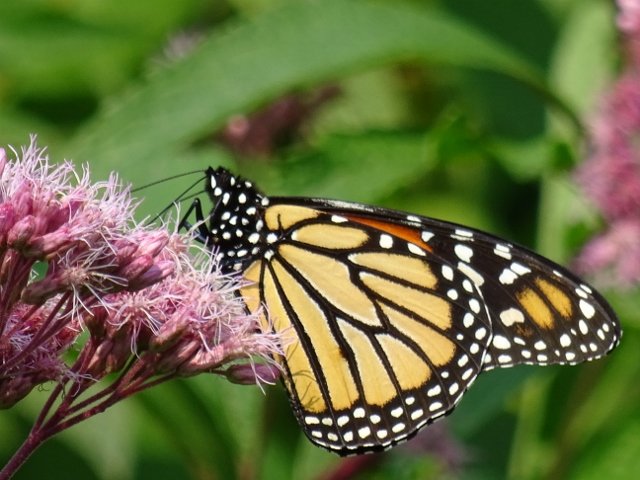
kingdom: Animalia
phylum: Arthropoda
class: Insecta
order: Lepidoptera
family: Nymphalidae
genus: Danaus
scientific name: Danaus plexippus
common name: Monarch
